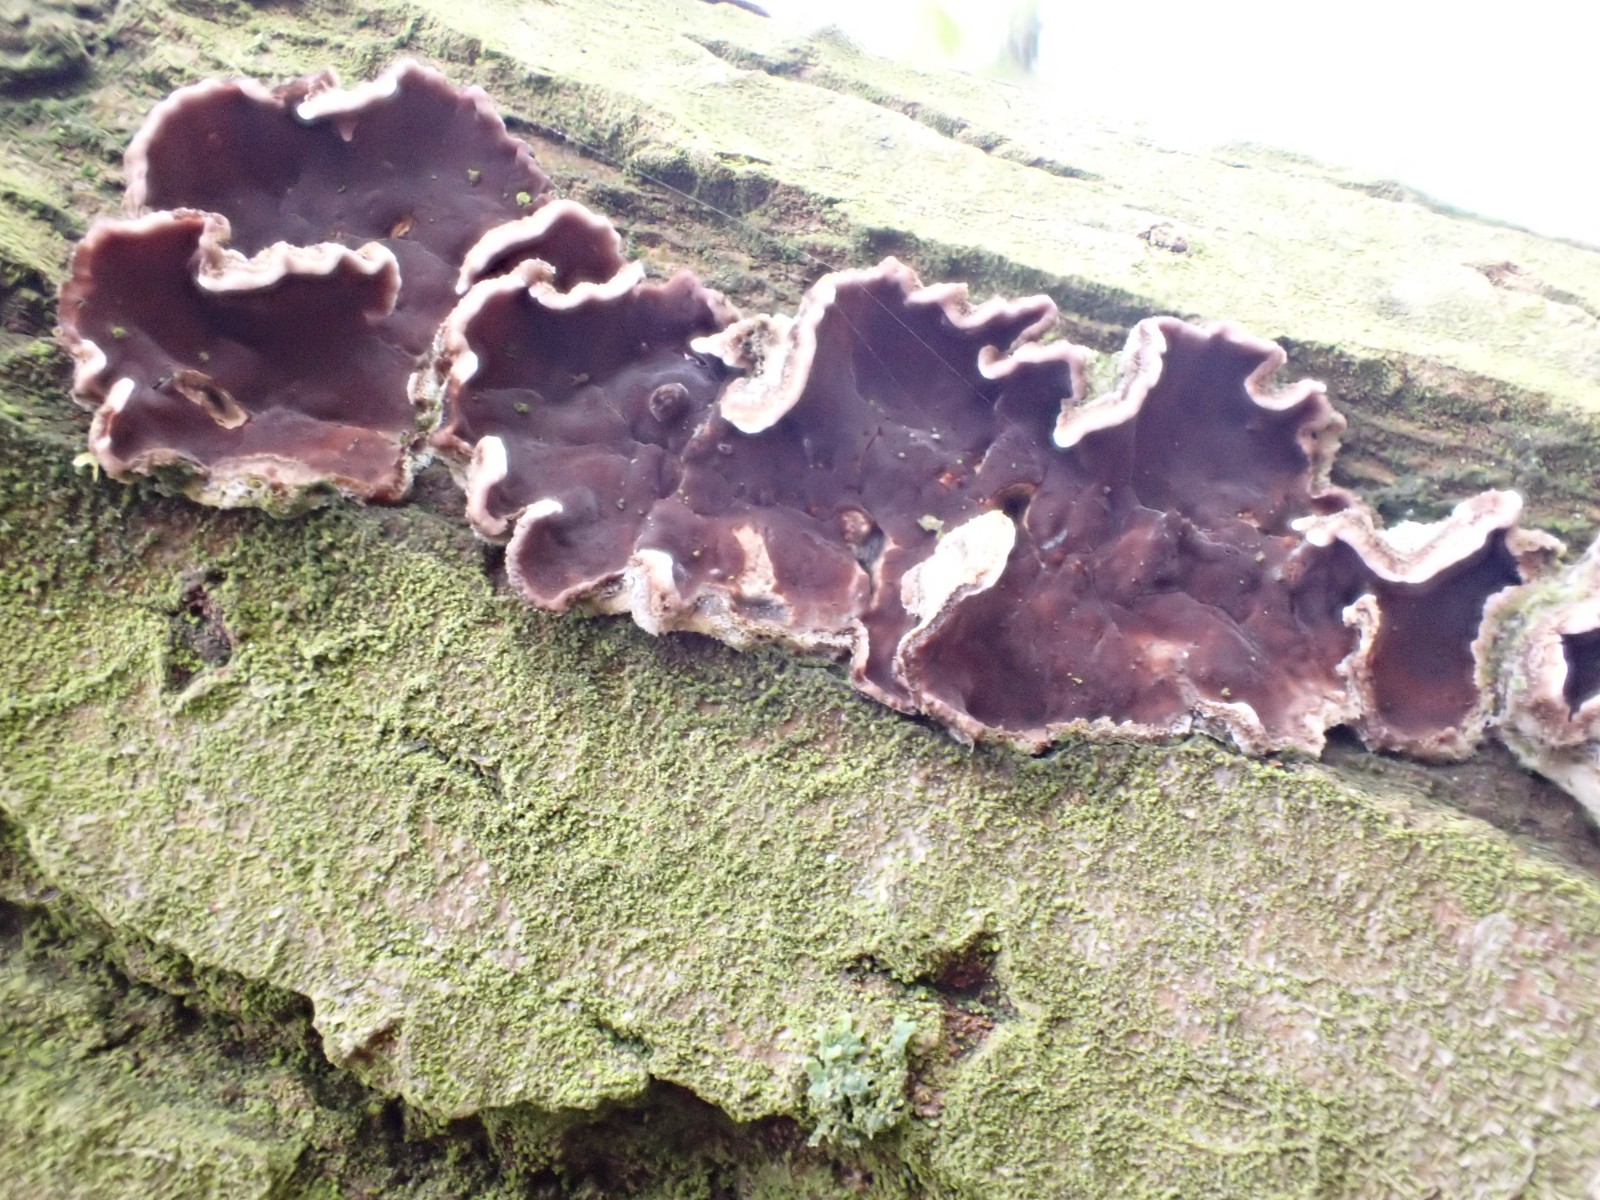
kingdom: Fungi
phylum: Basidiomycota
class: Agaricomycetes
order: Agaricales
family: Cyphellaceae
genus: Chondrostereum
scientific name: Chondrostereum purpureum
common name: purpurlædersvamp
